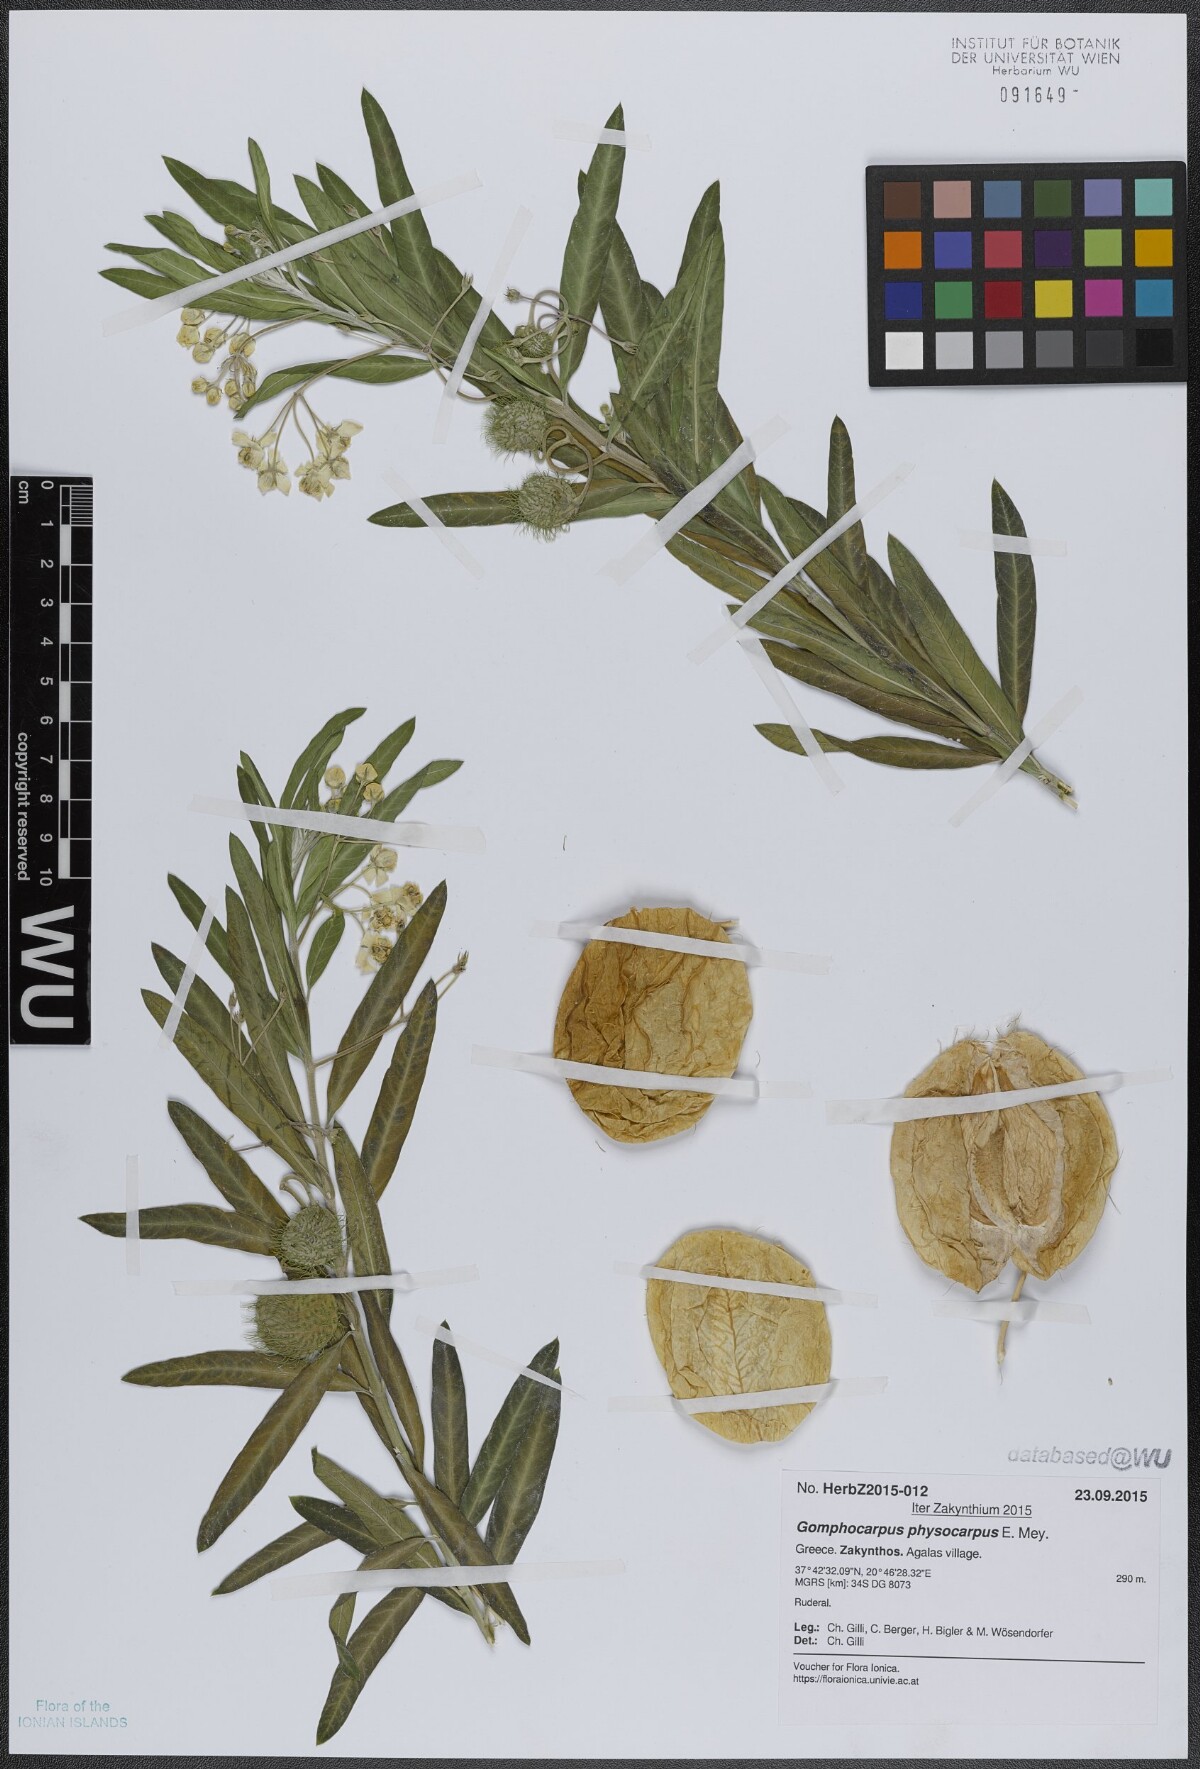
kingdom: Plantae
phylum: Tracheophyta
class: Magnoliopsida
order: Gentianales
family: Apocynaceae
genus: Gomphocarpus
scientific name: Gomphocarpus physocarpus
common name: Balloon cotton bush
